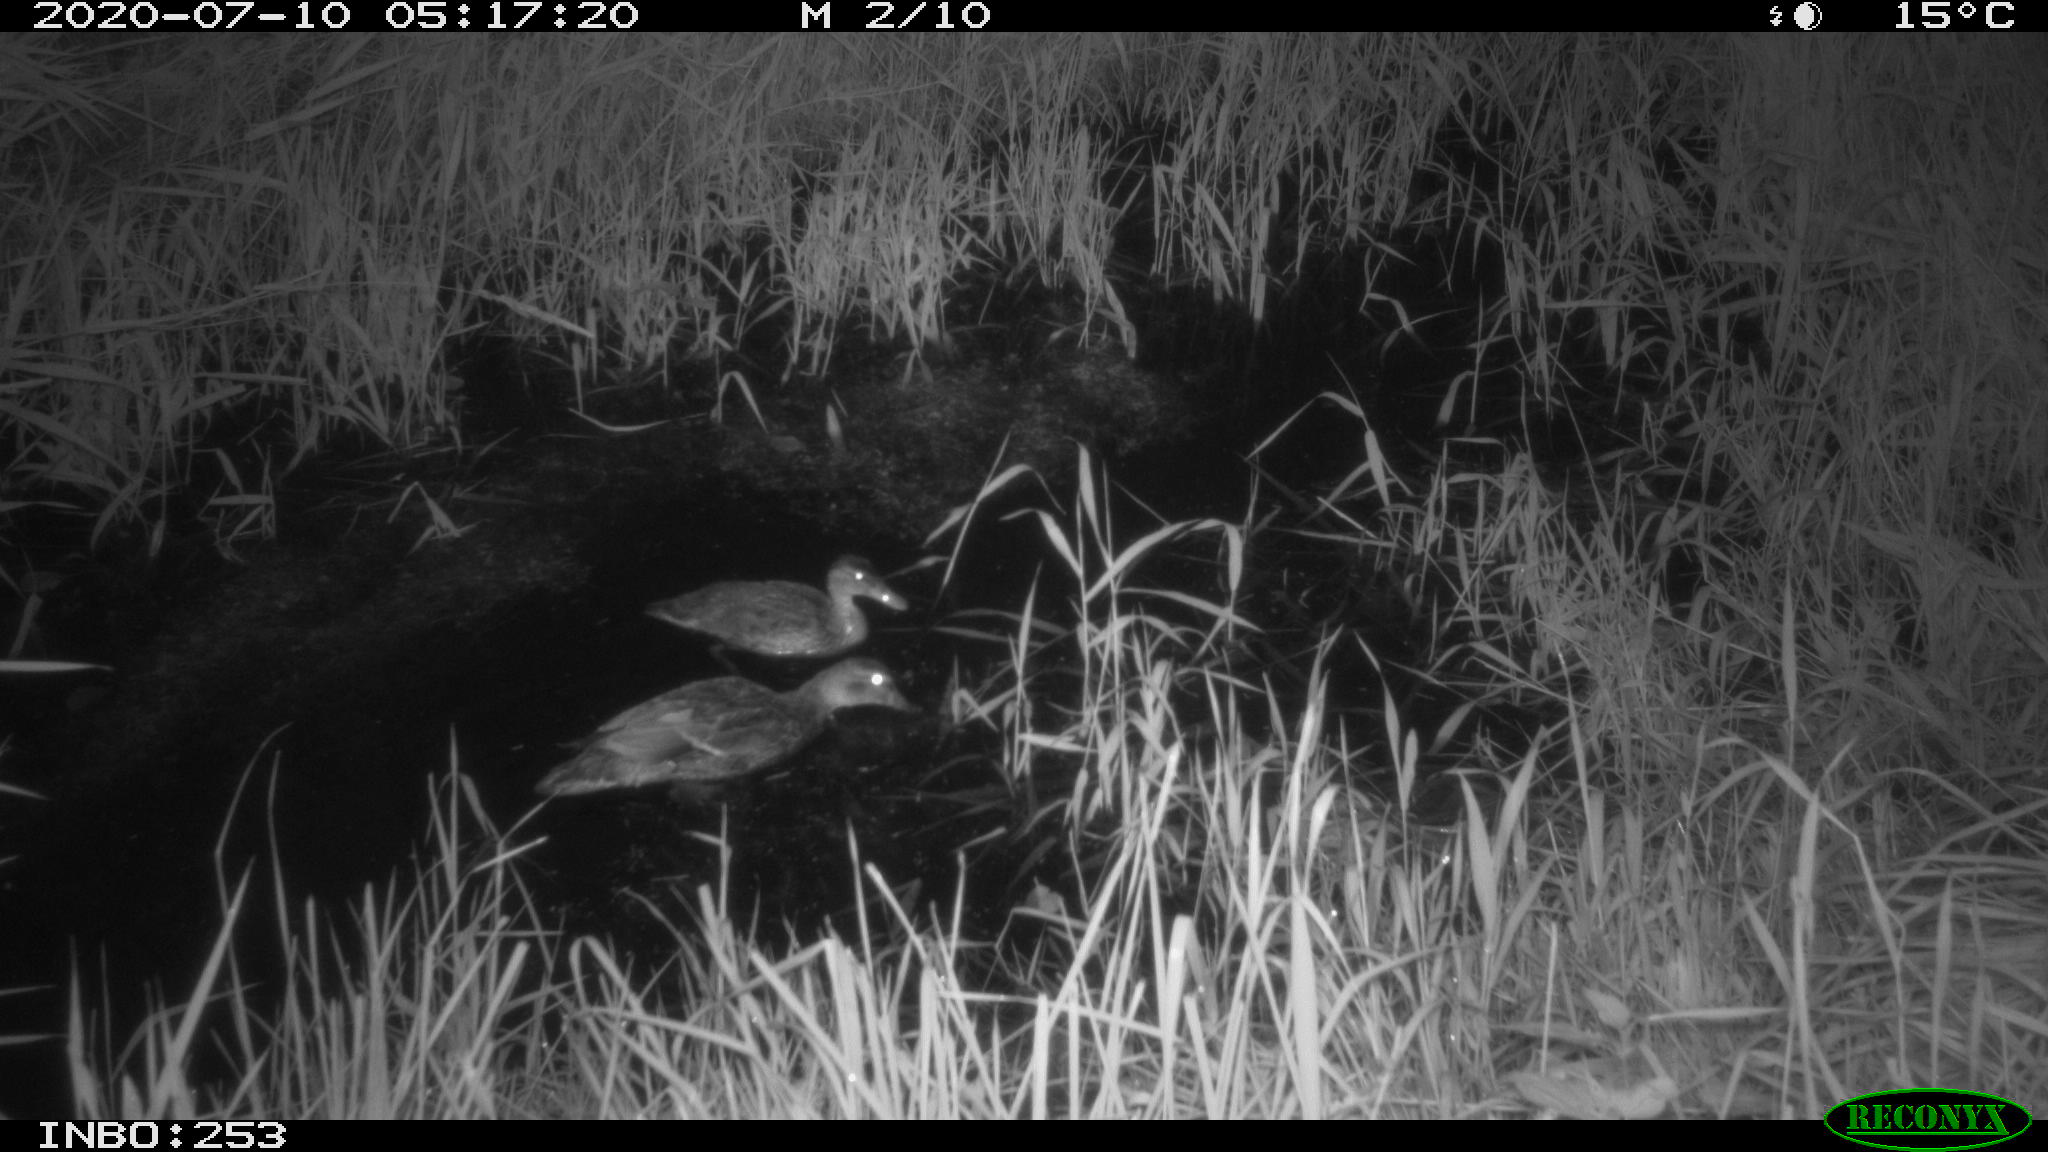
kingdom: Animalia
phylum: Chordata
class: Aves
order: Anseriformes
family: Anatidae
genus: Anas
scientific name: Anas platyrhynchos
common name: Mallard
